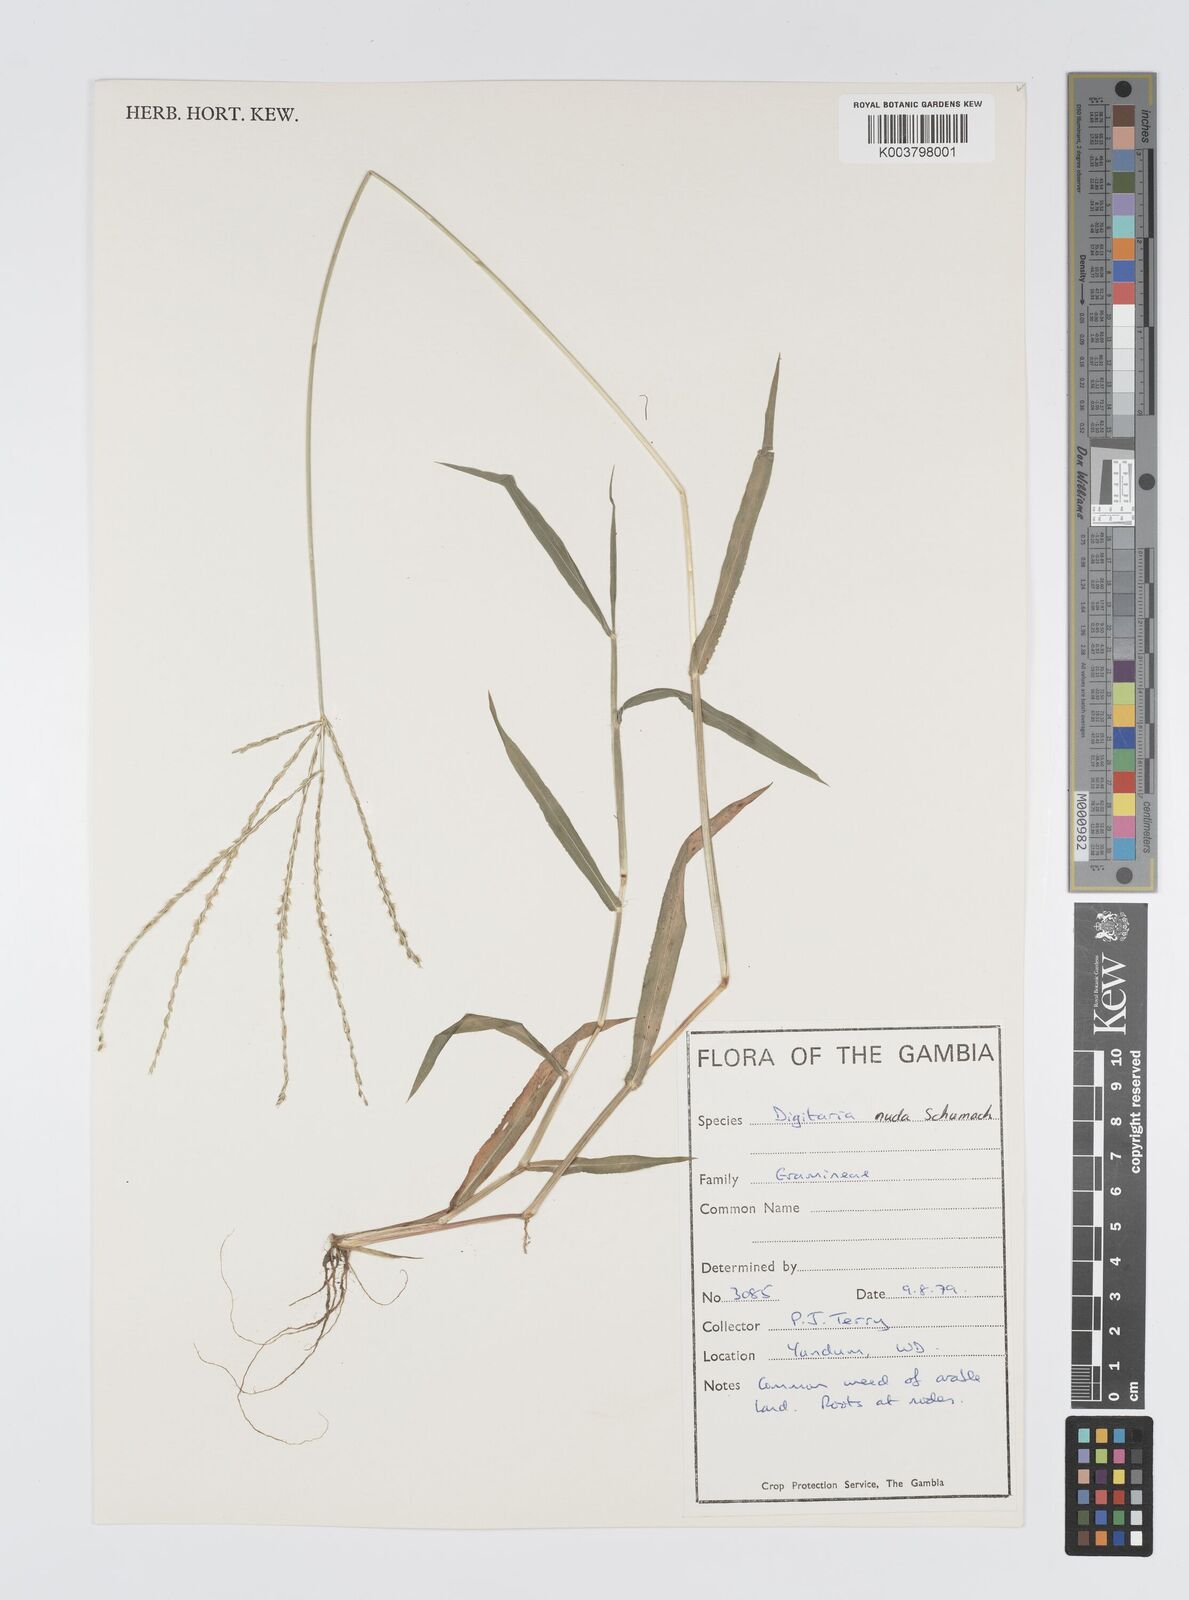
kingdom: Plantae
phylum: Tracheophyta
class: Liliopsida
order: Poales
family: Poaceae
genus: Digitaria
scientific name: Digitaria nuda
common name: Naked crabgrass
